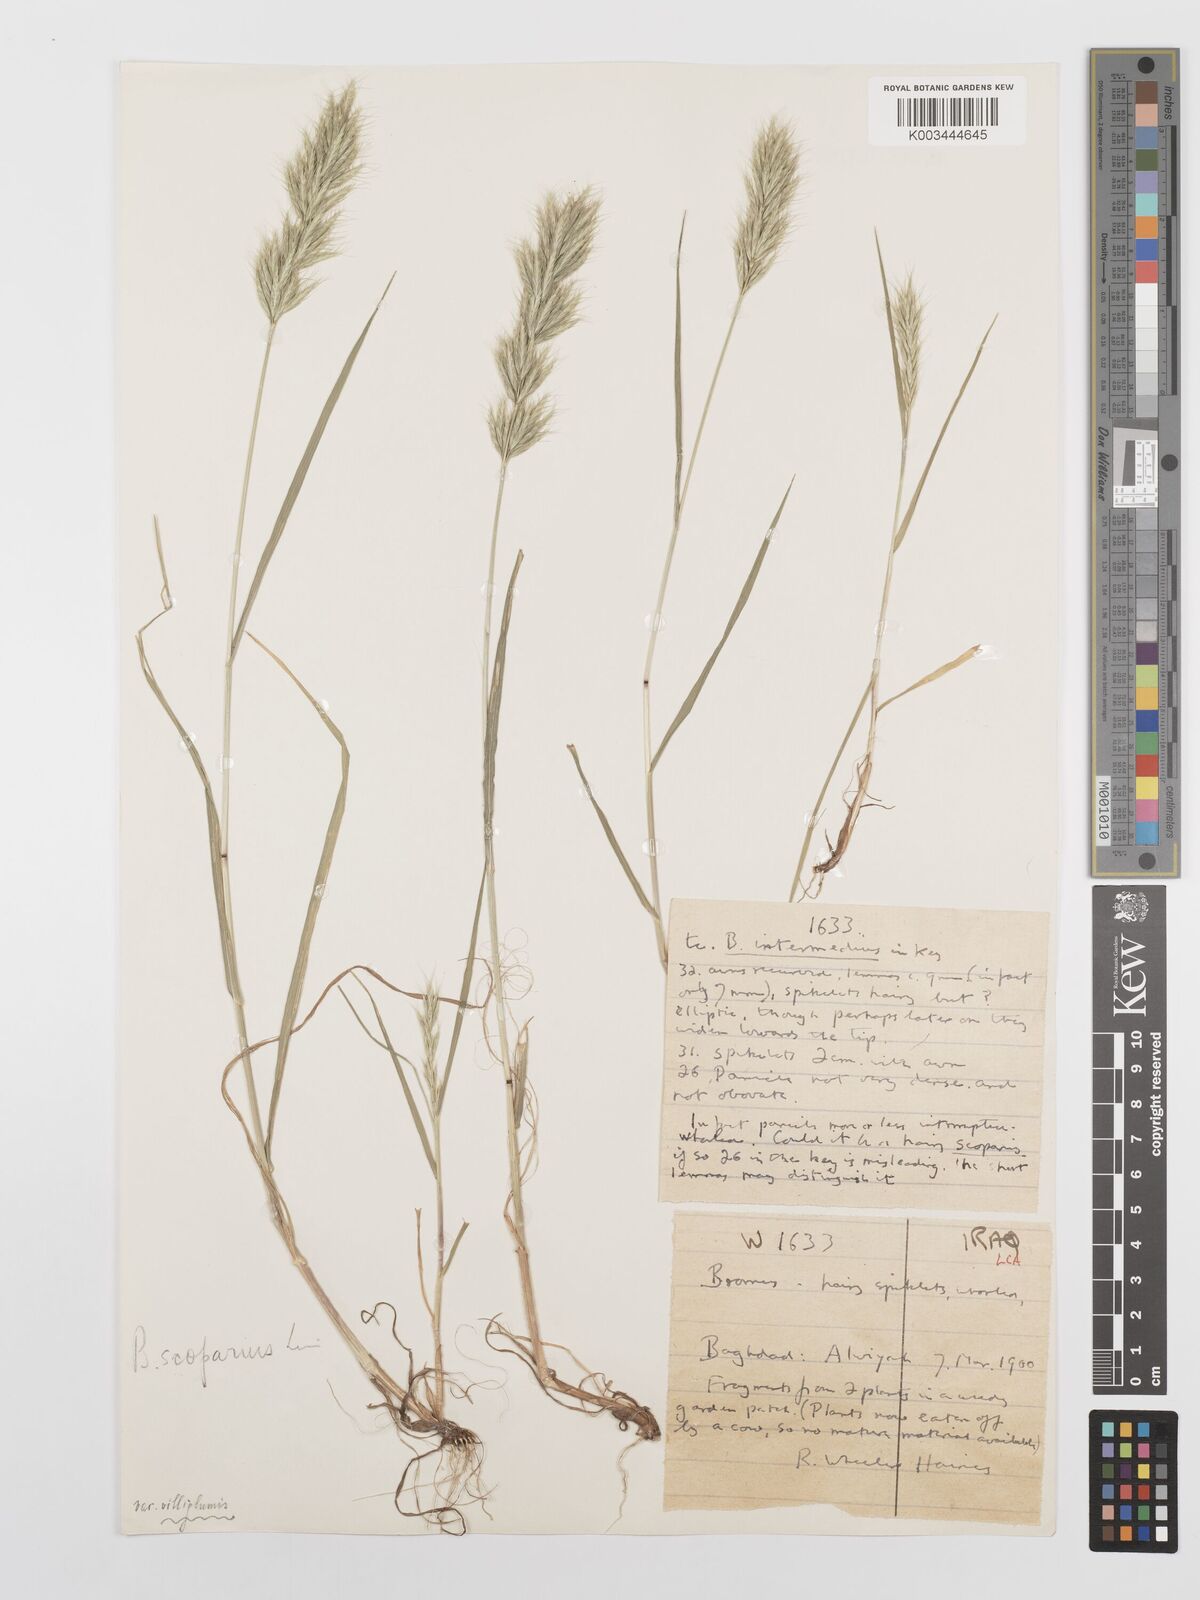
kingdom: Plantae
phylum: Tracheophyta
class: Liliopsida
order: Poales
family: Poaceae
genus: Bromus
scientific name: Bromus scoparius
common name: Broom brome
